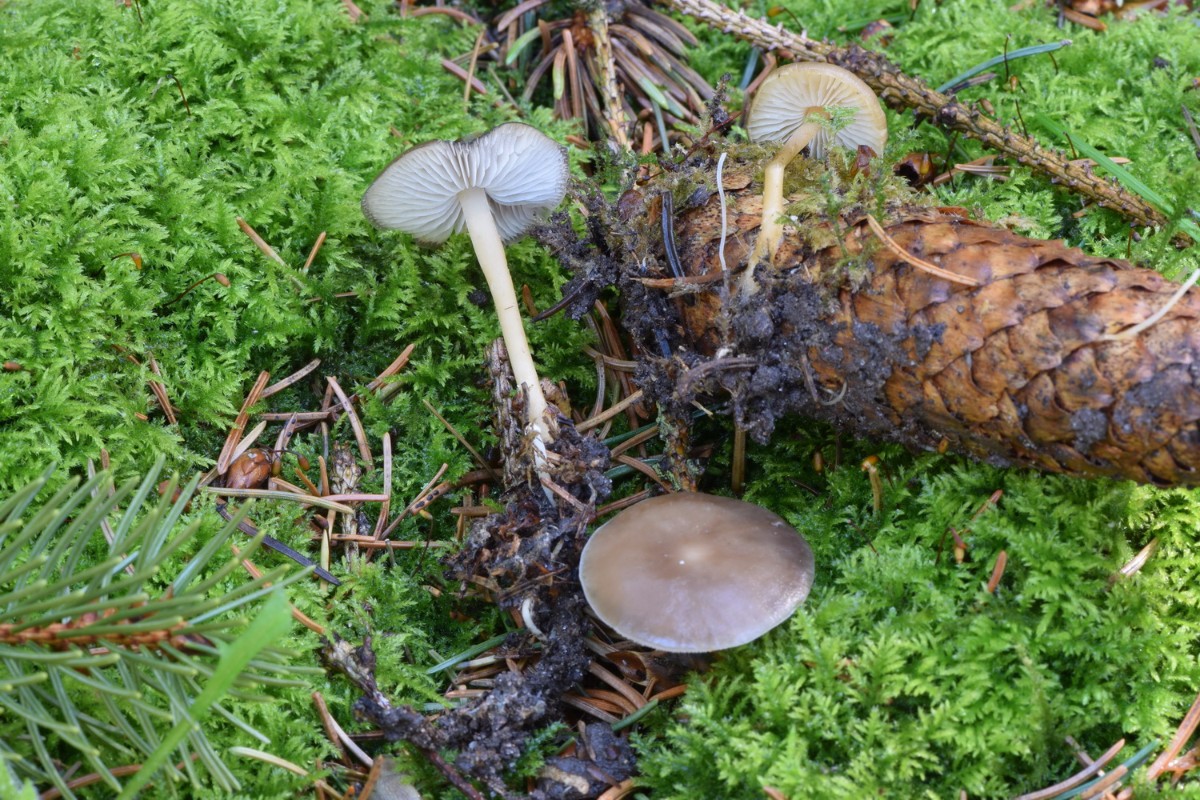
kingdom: Fungi
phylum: Basidiomycota
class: Agaricomycetes
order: Agaricales
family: Physalacriaceae
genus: Strobilurus
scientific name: Strobilurus esculentus
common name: gran-koglehat
